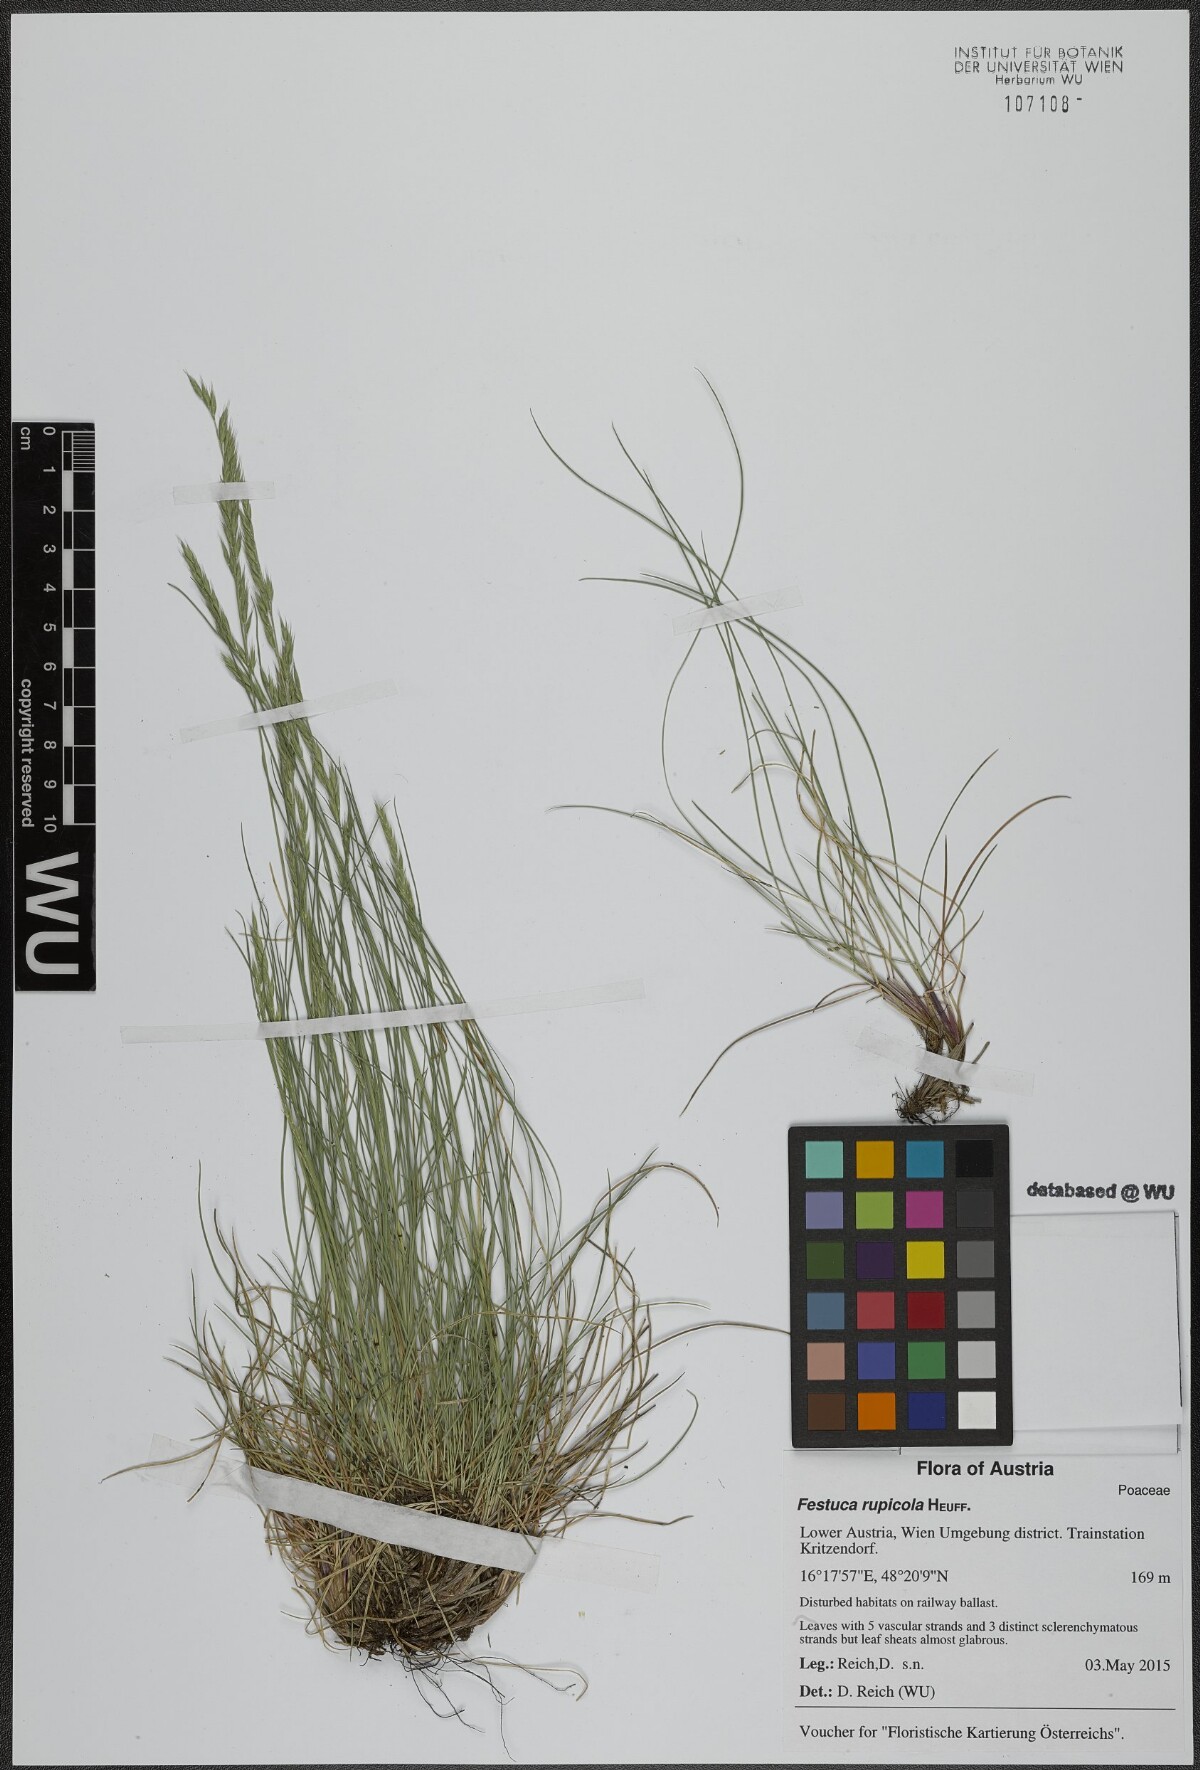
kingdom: Plantae
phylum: Tracheophyta
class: Liliopsida
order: Poales
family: Poaceae
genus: Festuca
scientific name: Festuca rupicola
